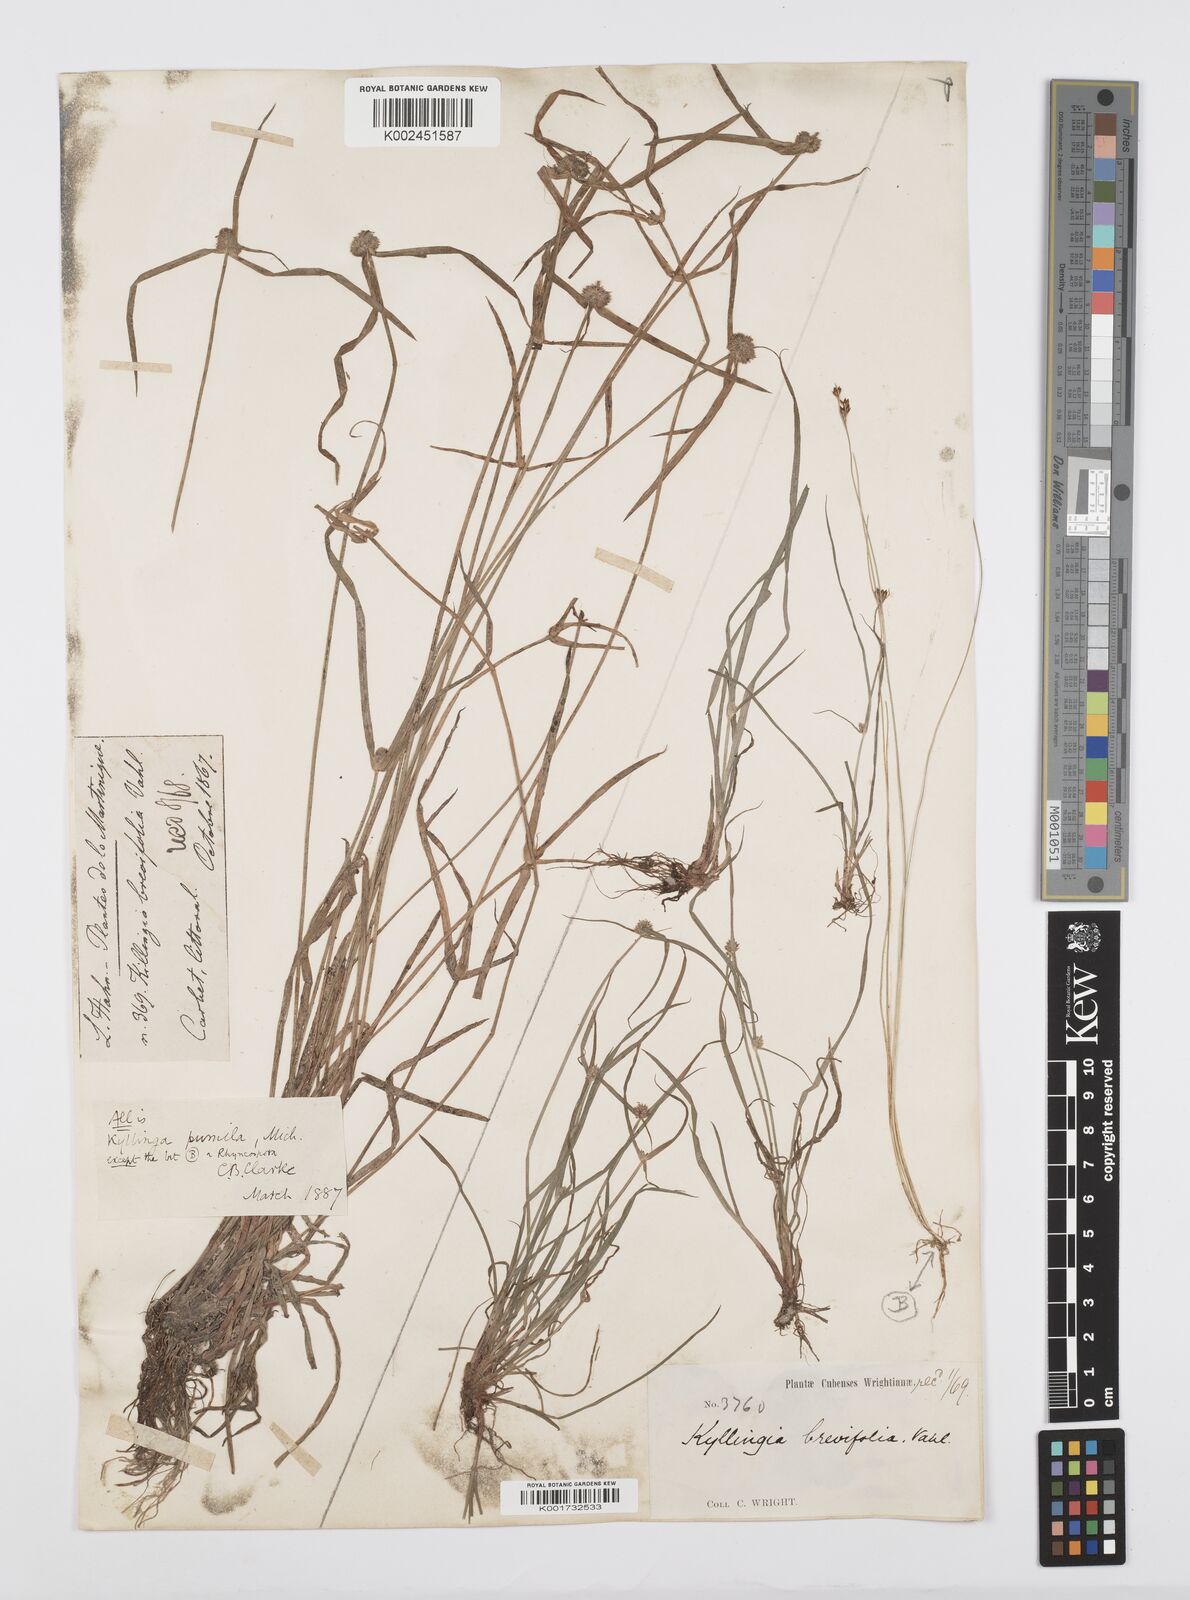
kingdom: Plantae
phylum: Tracheophyta
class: Liliopsida
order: Poales
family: Cyperaceae
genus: Cyperus
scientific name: Cyperus
